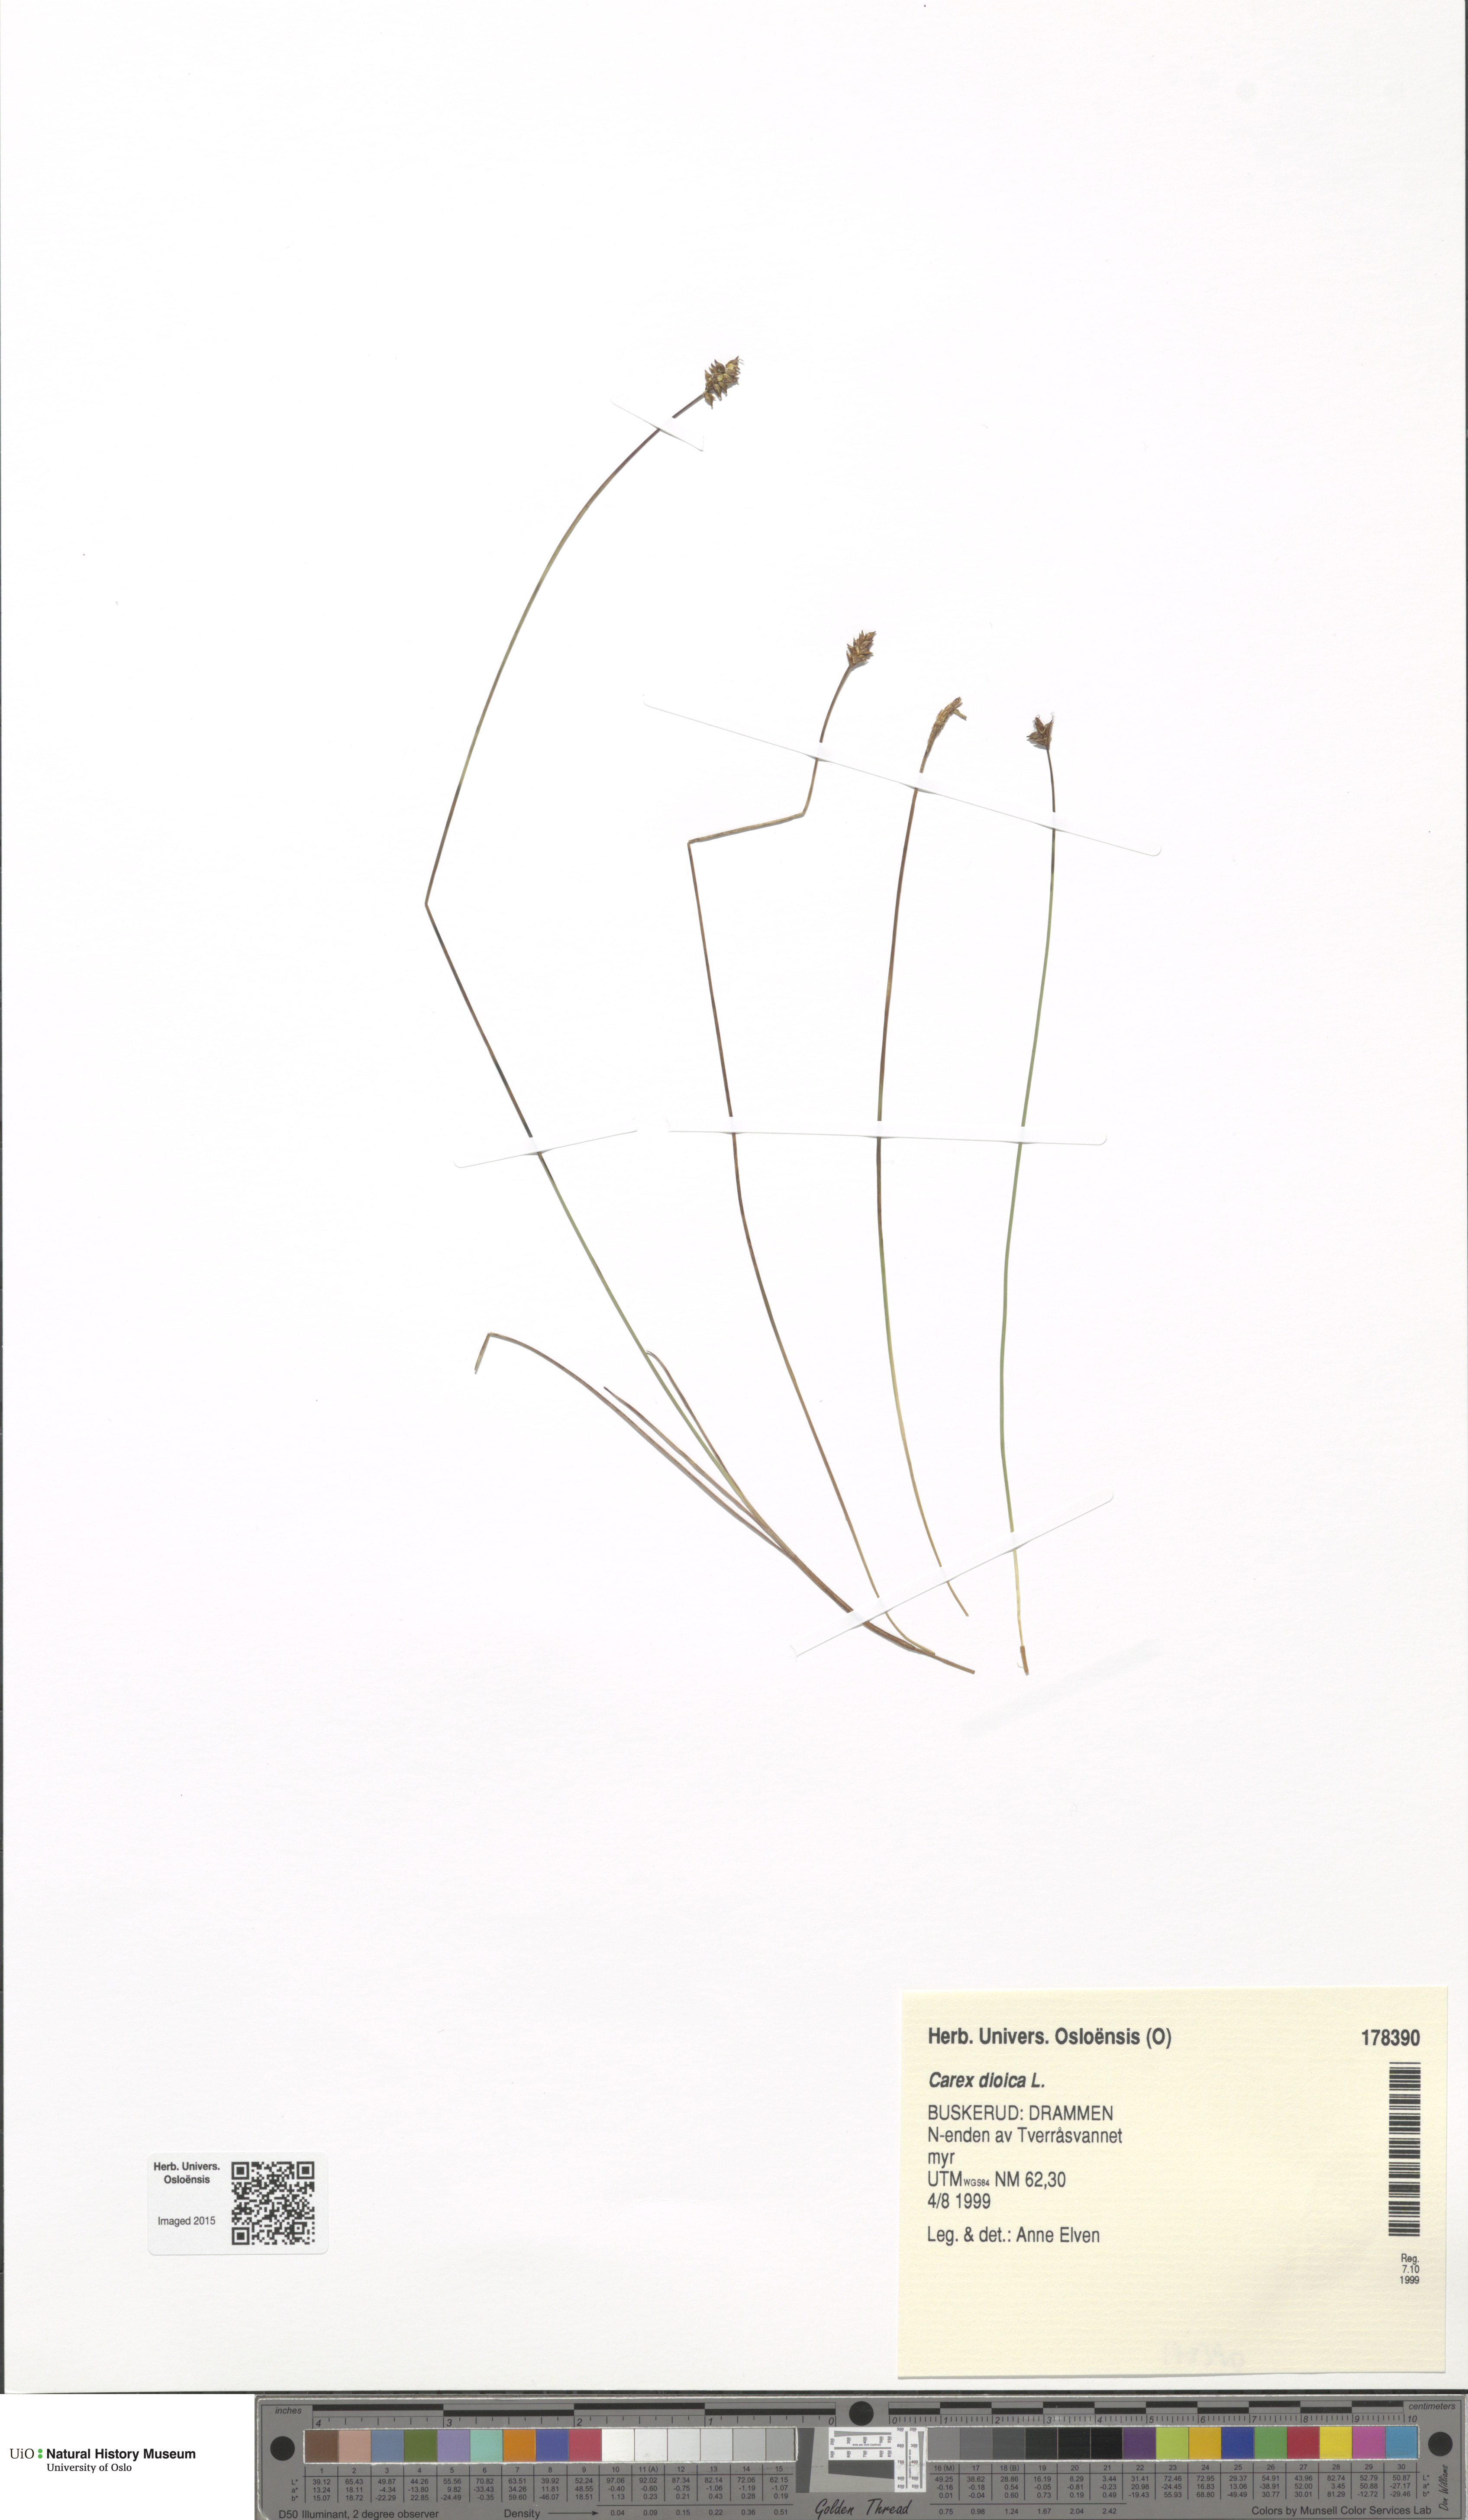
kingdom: Plantae
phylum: Tracheophyta
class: Liliopsida
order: Poales
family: Cyperaceae
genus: Carex
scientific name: Carex dioica
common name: Dioecious sedge
